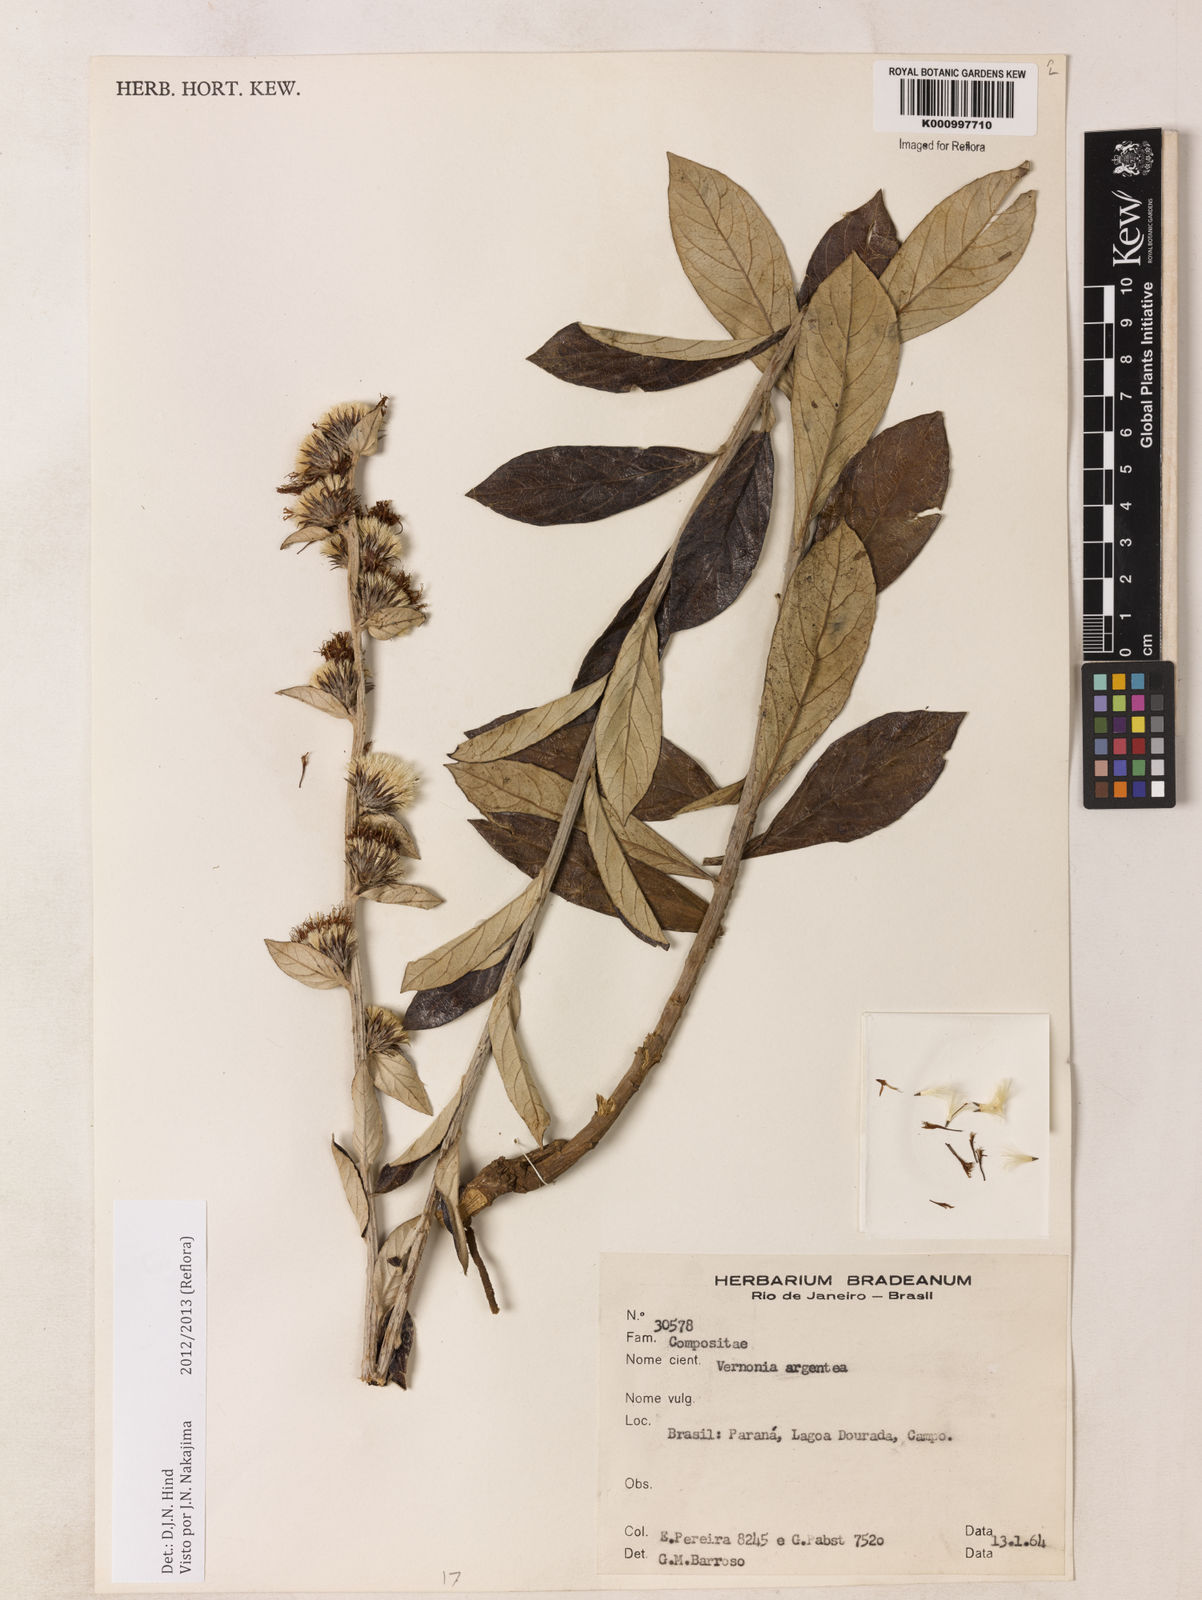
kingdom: Plantae
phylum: Tracheophyta
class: Magnoliopsida
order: Asterales
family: Asteraceae
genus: Lessingianthus
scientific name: Lessingianthus argenteus
